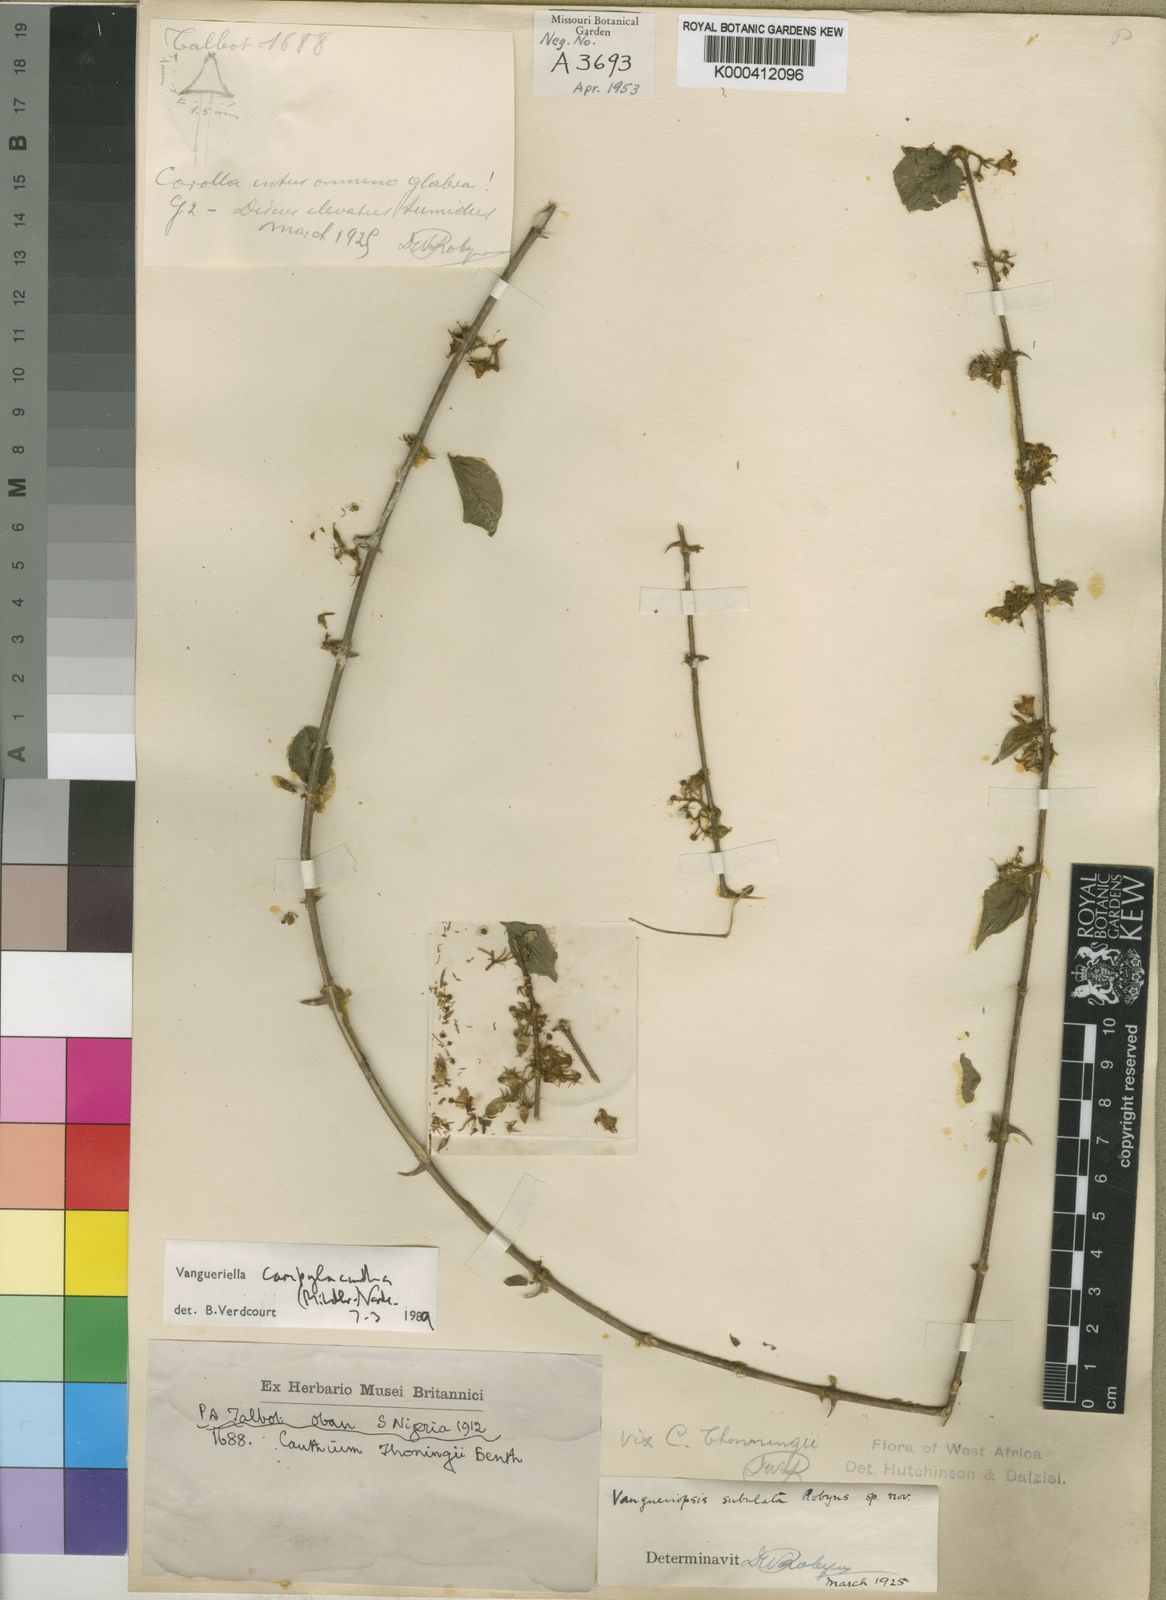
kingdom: Plantae
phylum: Tracheophyta
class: Magnoliopsida
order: Gentianales
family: Rubiaceae
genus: Vangueriella
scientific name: Vangueriella campylacantha
